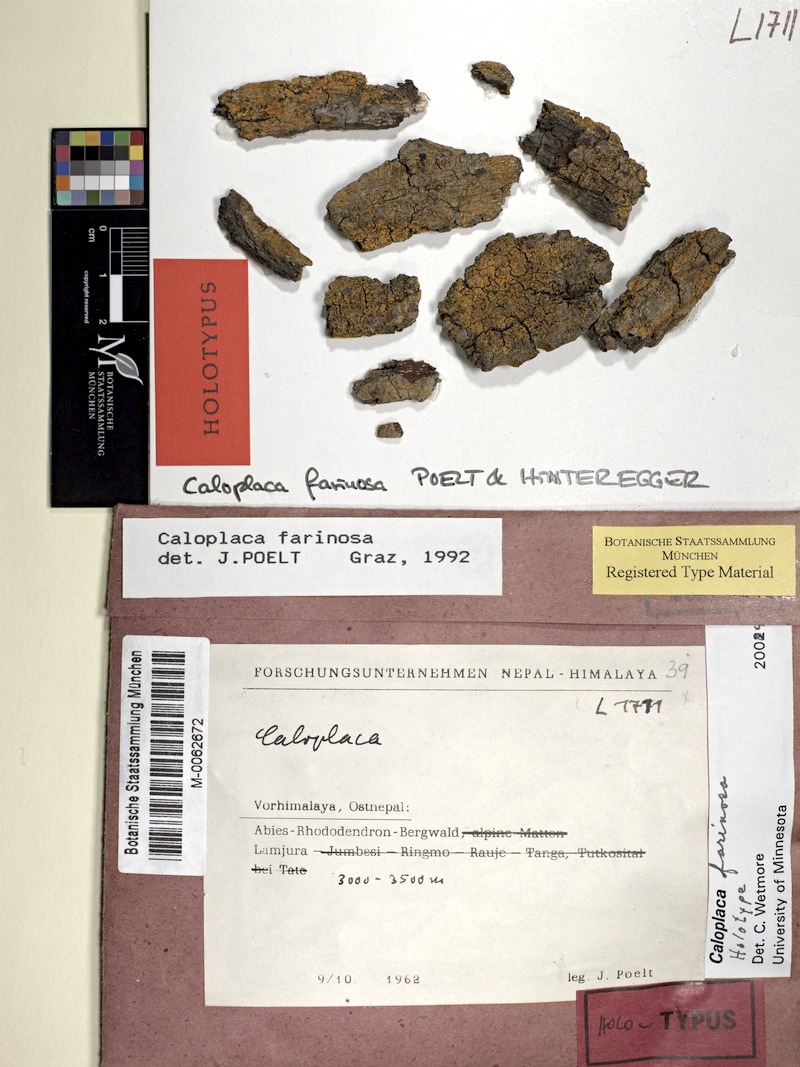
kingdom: Fungi
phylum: Ascomycota
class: Lecanoromycetes
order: Teloschistales
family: Teloschistaceae
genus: Caloplaca
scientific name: Caloplaca
